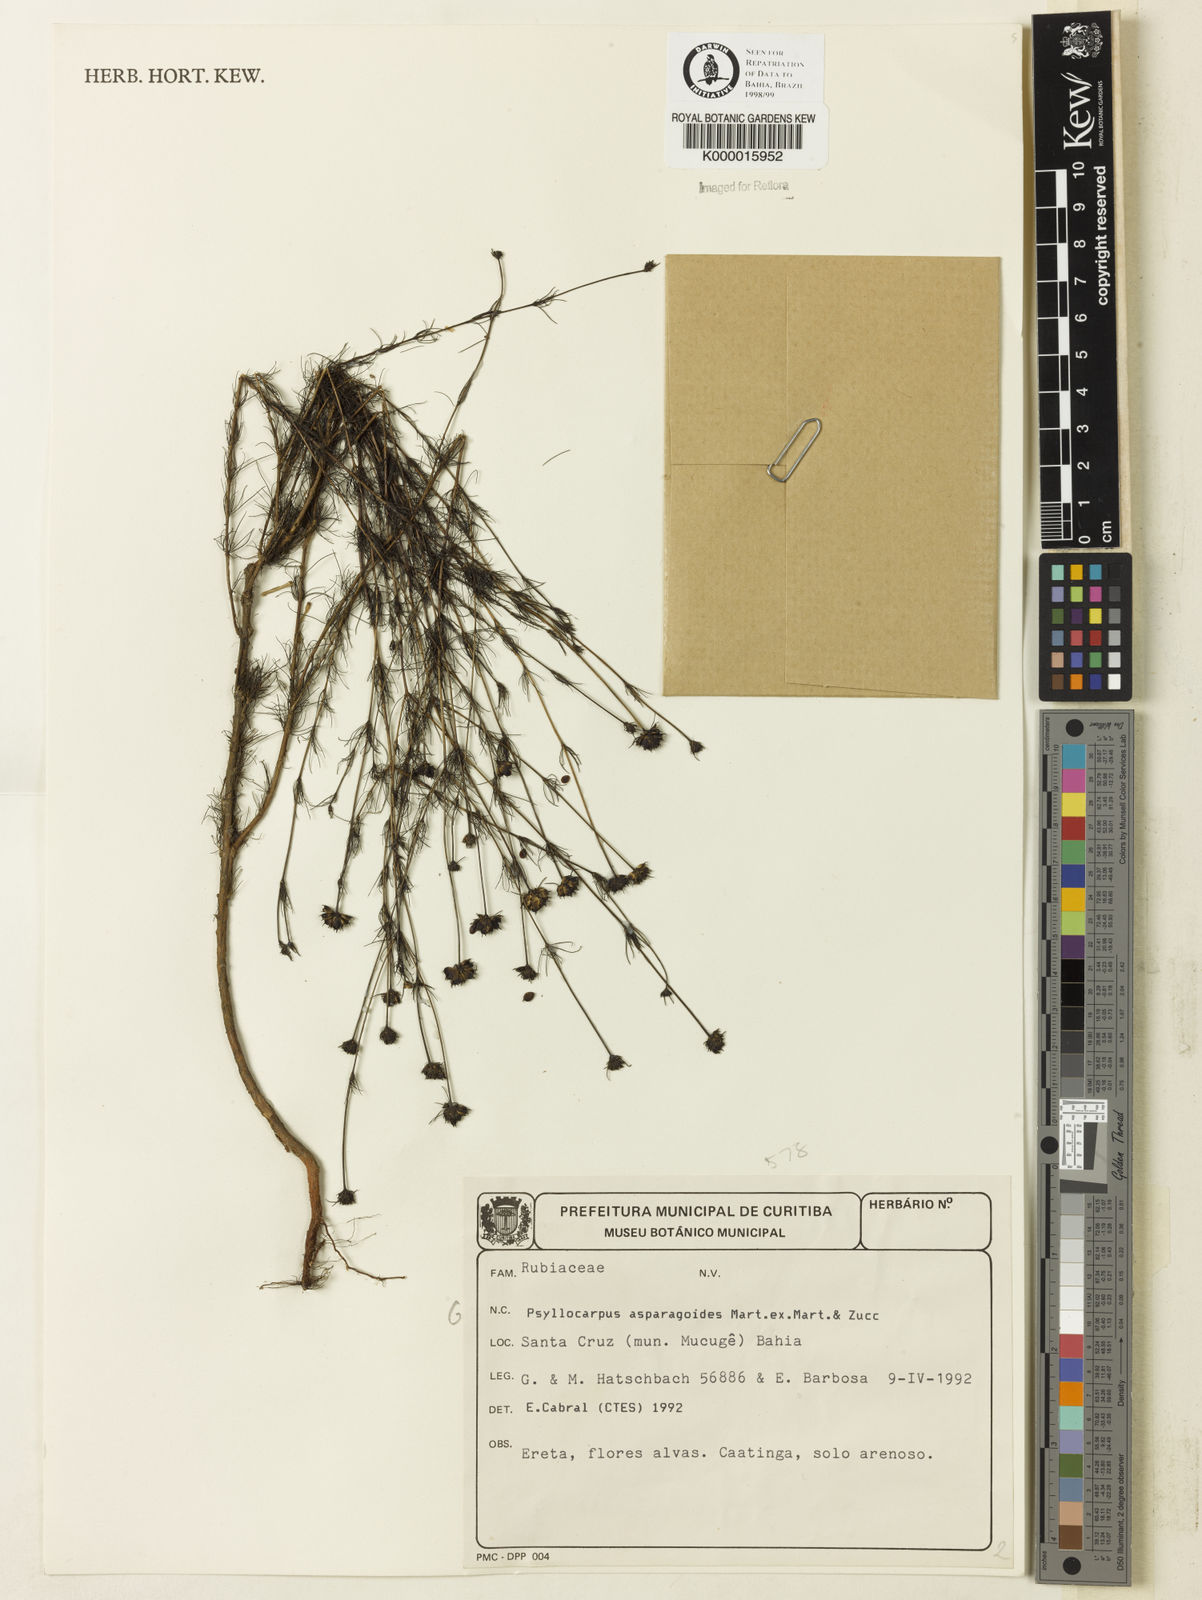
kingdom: Plantae
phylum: Tracheophyta
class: Magnoliopsida
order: Gentianales
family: Rubiaceae
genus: Psyllocarpus
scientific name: Psyllocarpus asparagoides
